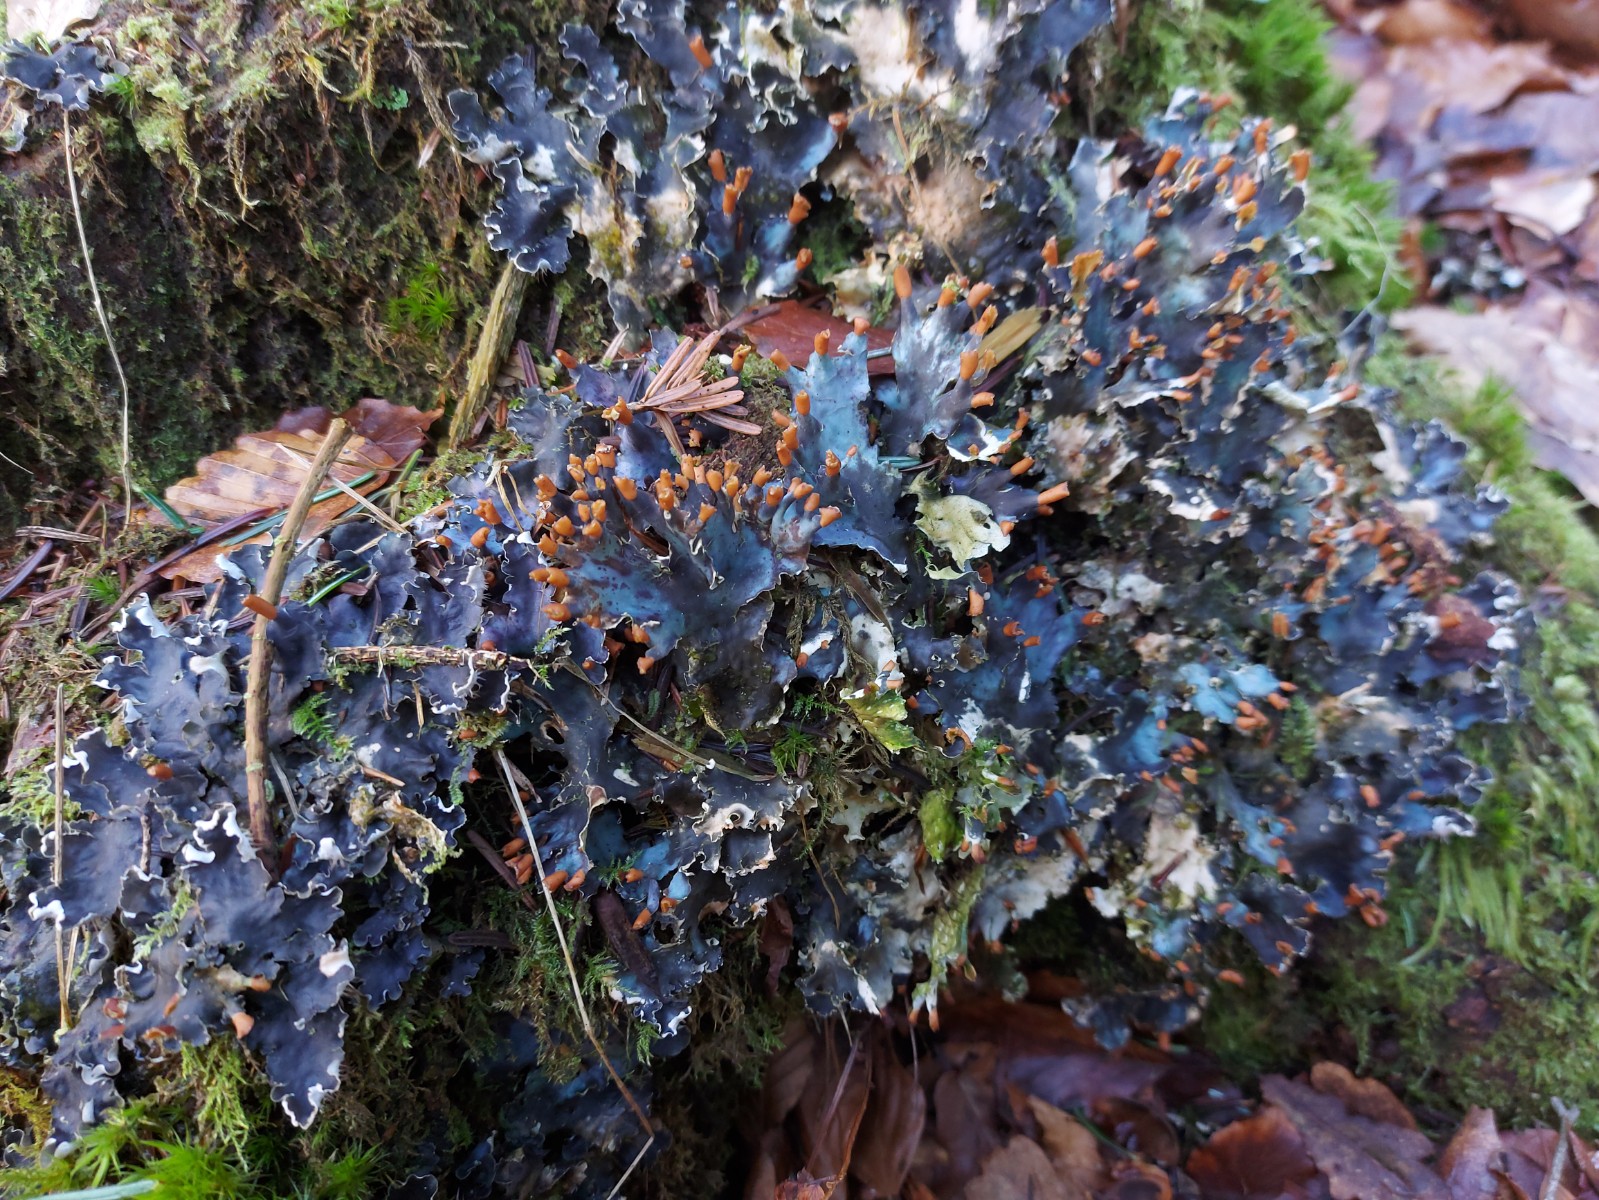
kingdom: Fungi
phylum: Ascomycota
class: Lecanoromycetes
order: Peltigerales
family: Peltigeraceae
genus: Peltigera
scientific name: Peltigera hymenina
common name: hinde-skjoldlav
